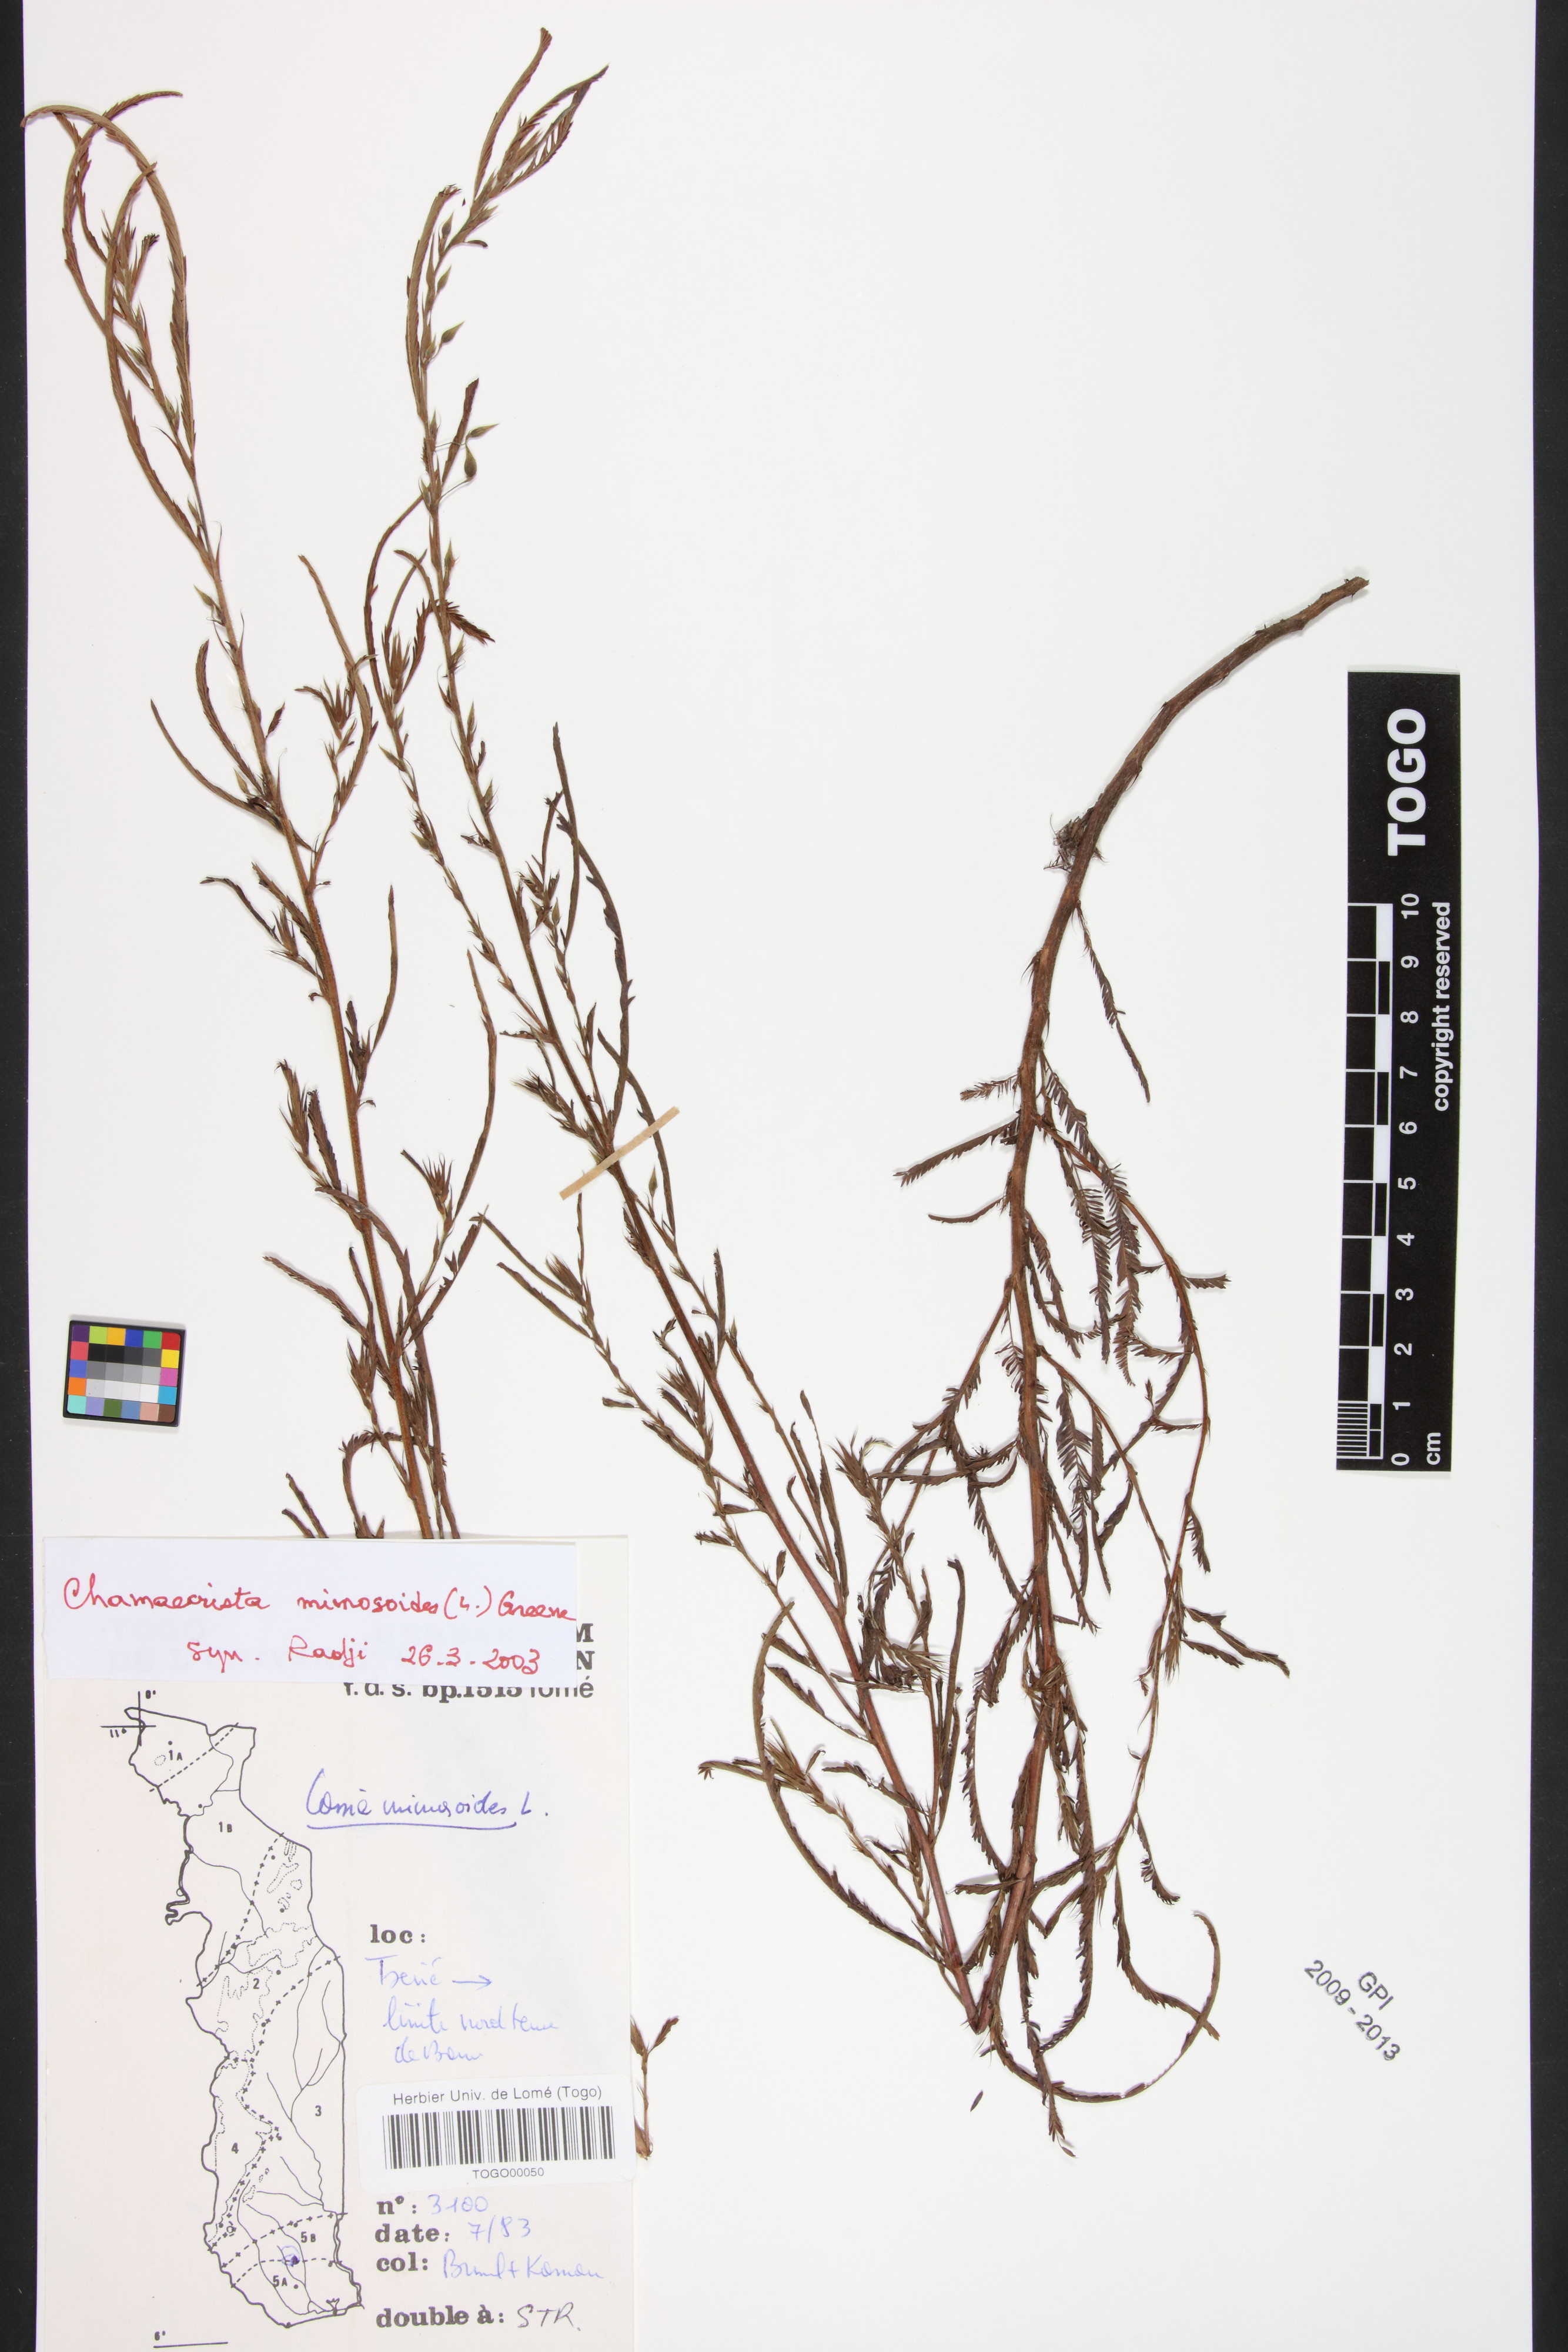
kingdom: Plantae
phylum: Tracheophyta
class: Magnoliopsida
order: Fabales
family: Fabaceae
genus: Chamaecrista
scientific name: Chamaecrista mimosoides
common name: Fish-bone cassia
